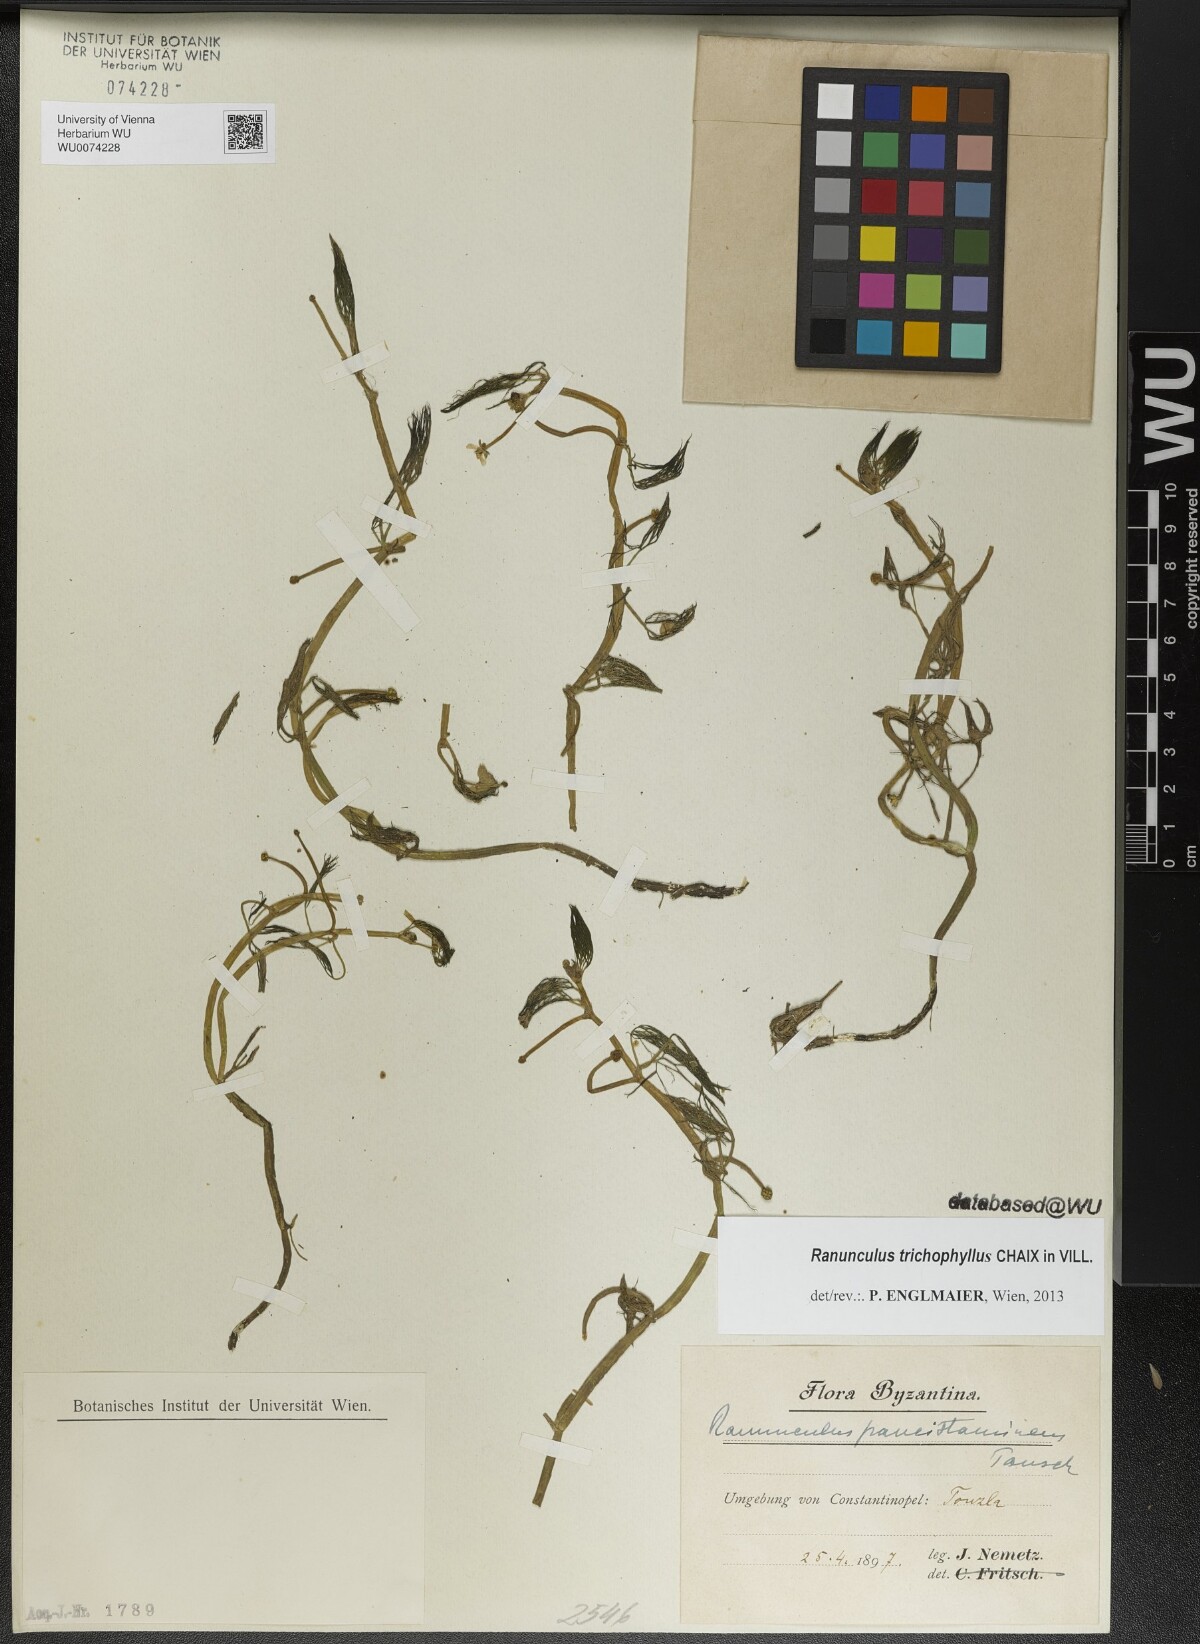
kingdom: Plantae
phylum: Tracheophyta
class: Magnoliopsida
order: Ranunculales
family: Ranunculaceae
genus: Ranunculus
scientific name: Ranunculus trichophyllus
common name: Thread-leaved water-crowfoot
